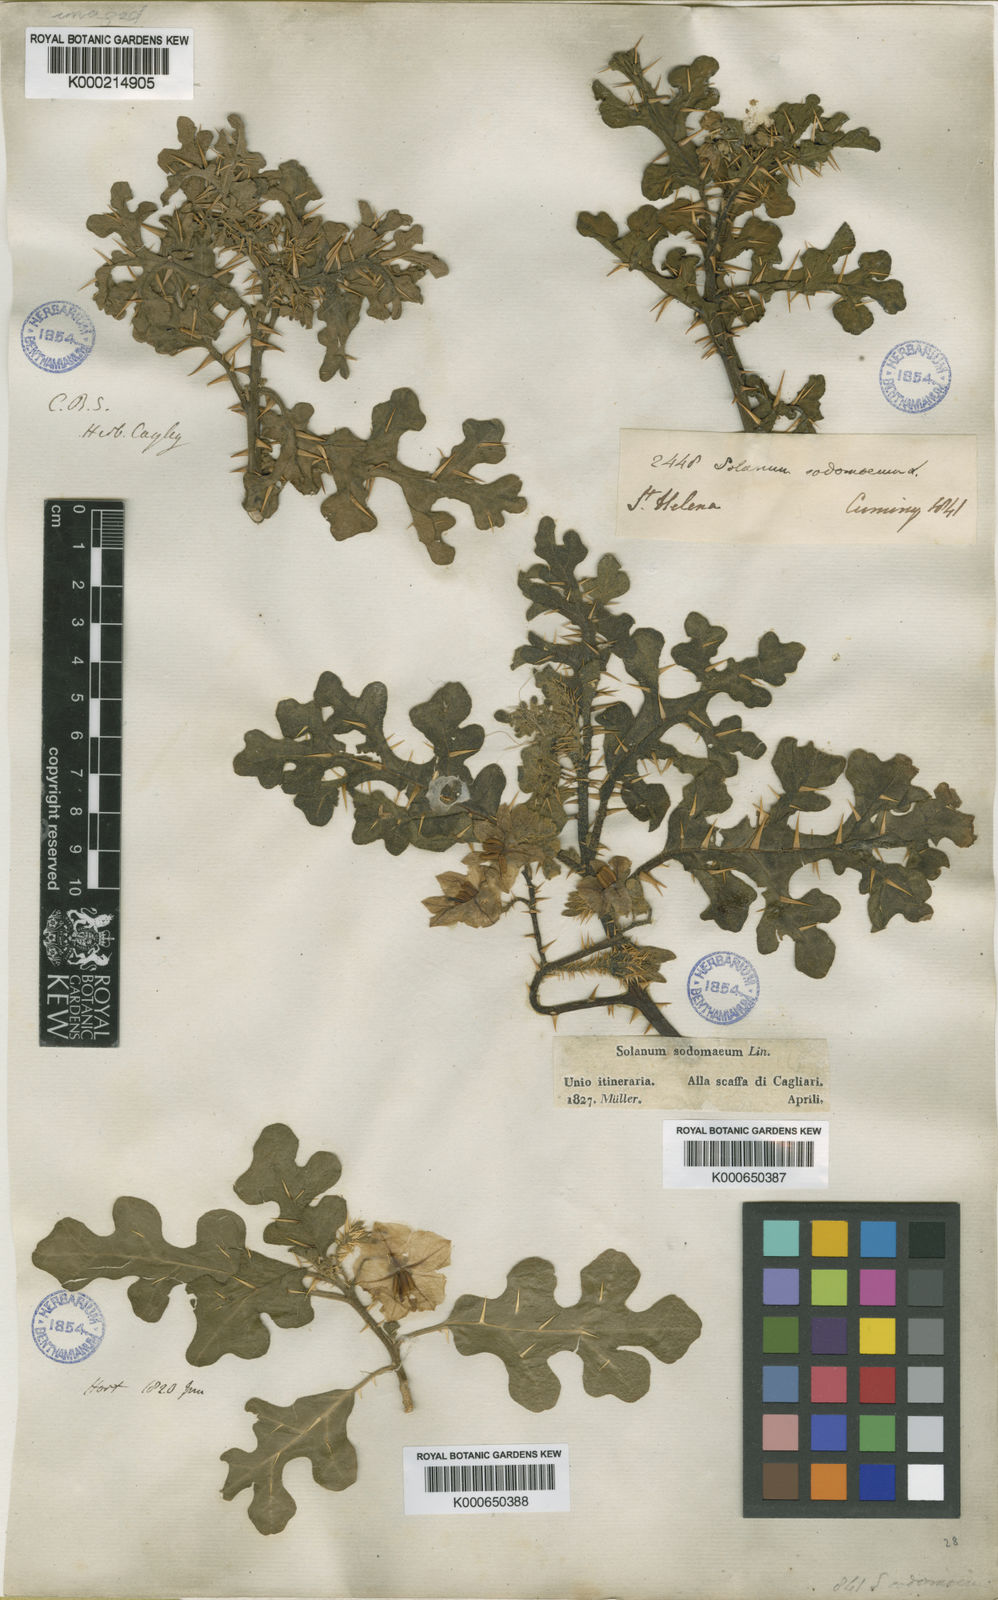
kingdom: Plantae
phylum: Tracheophyta
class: Magnoliopsida
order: Solanales
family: Solanaceae
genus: Solanum
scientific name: Solanum linnaeanum
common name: Nightshade
